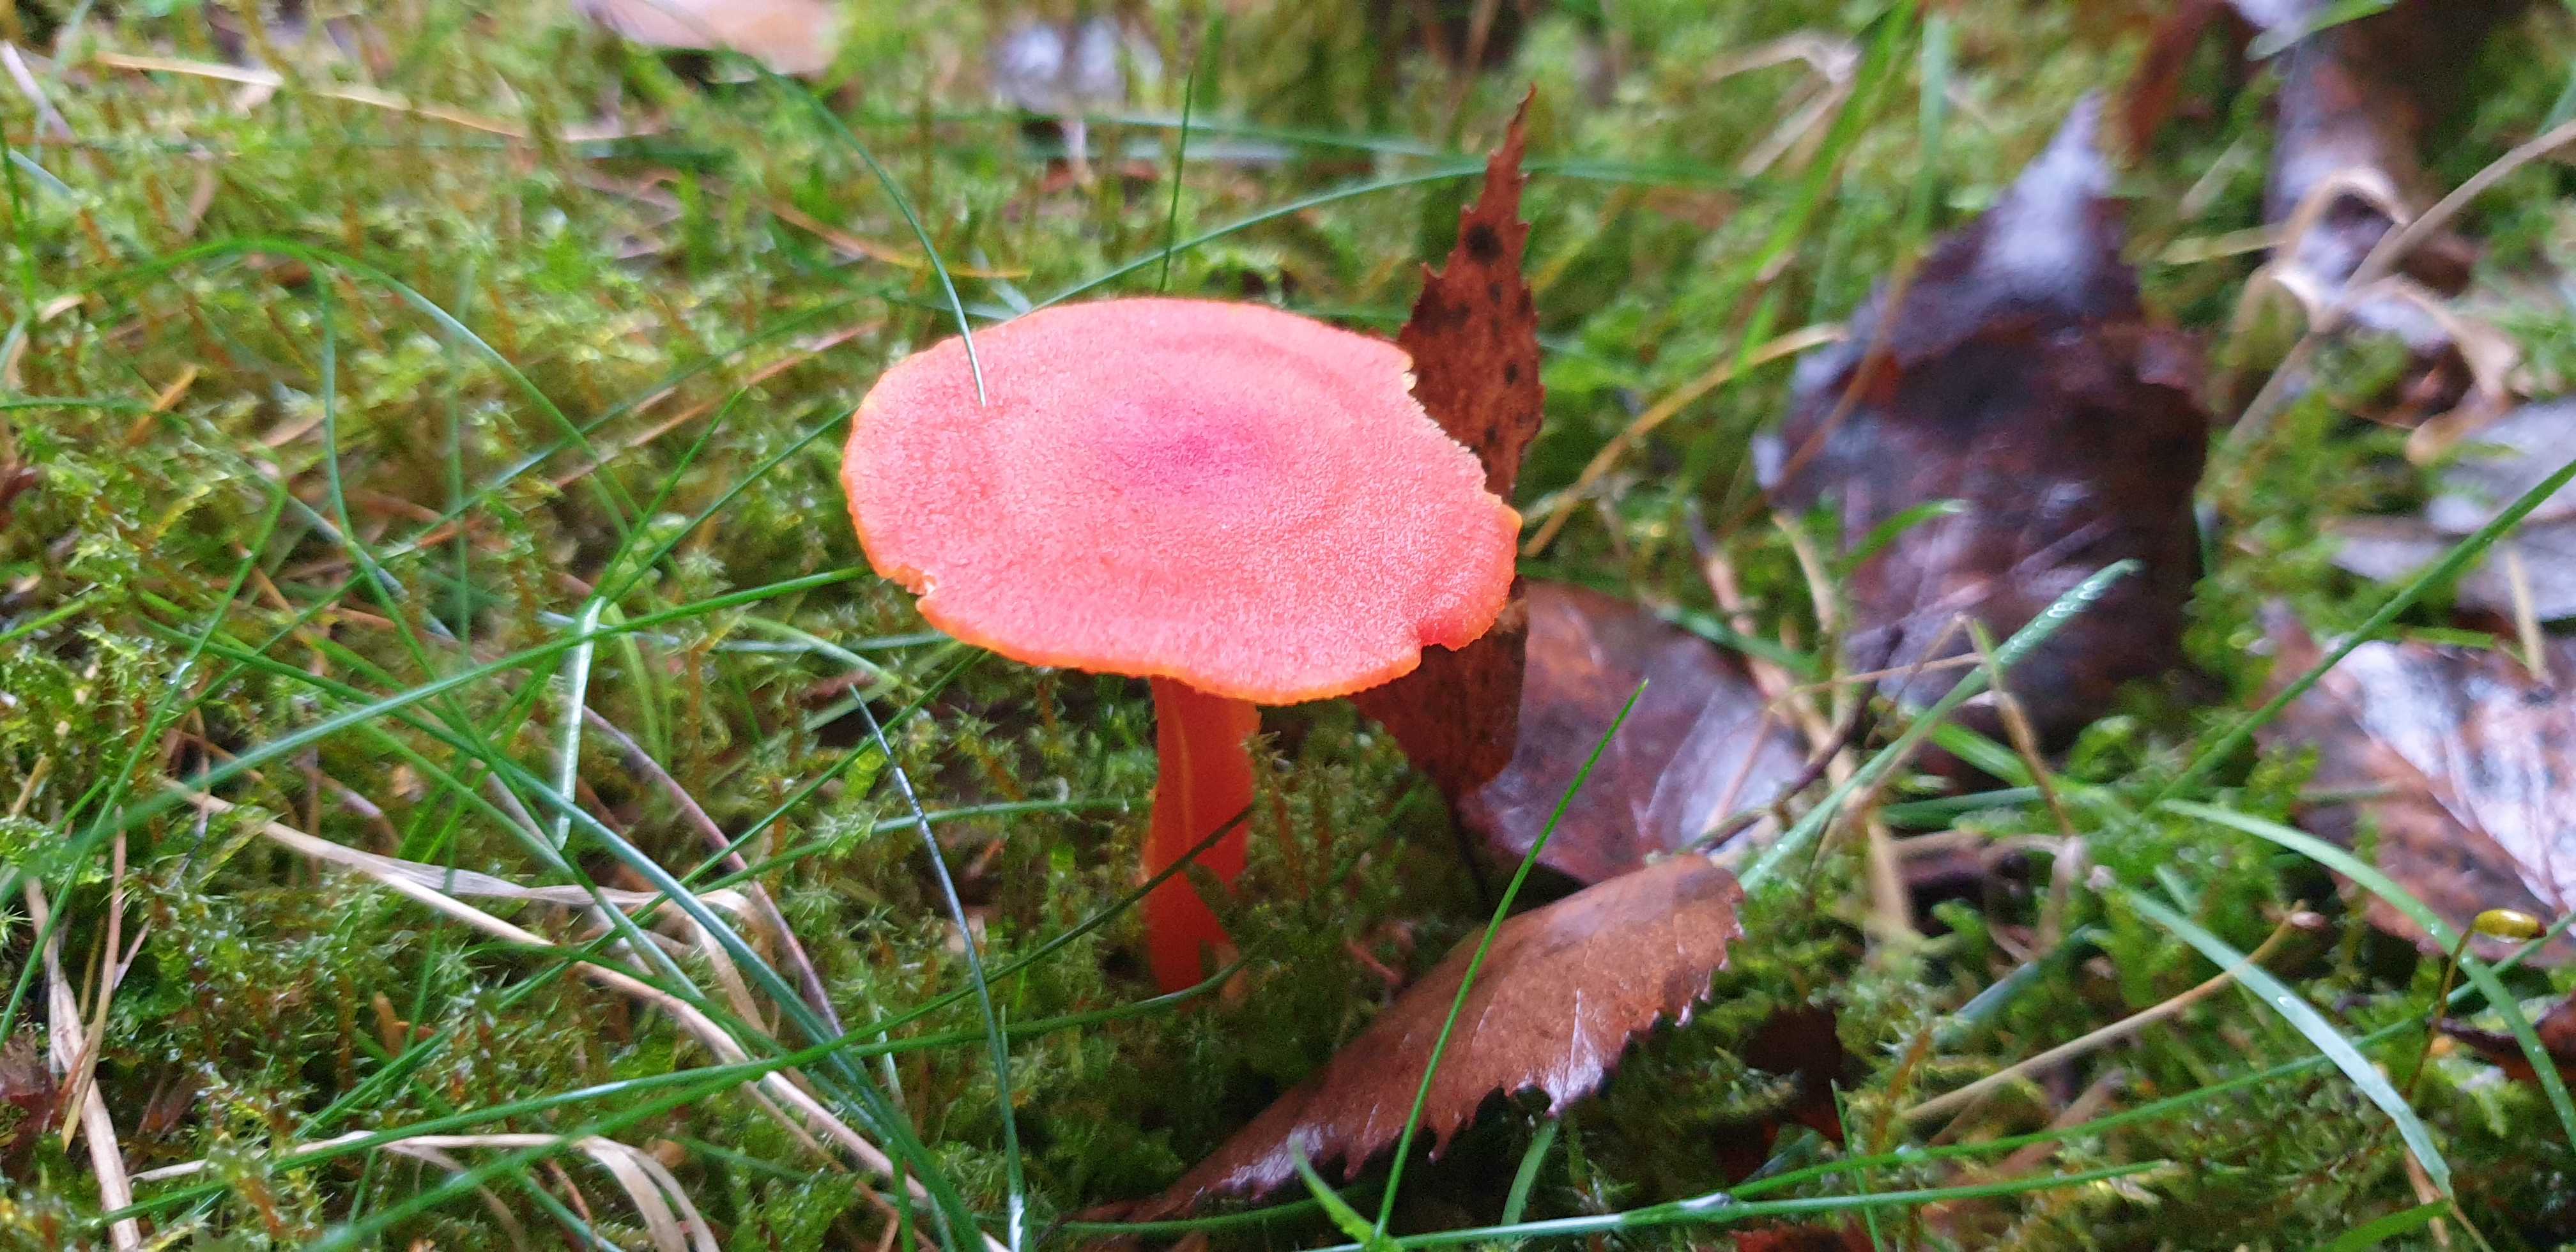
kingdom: Fungi
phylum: Basidiomycota
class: Agaricomycetes
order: Agaricales
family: Hygrophoraceae
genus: Hygrocybe
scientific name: Hygrocybe miniata
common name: mønje-vokshat
